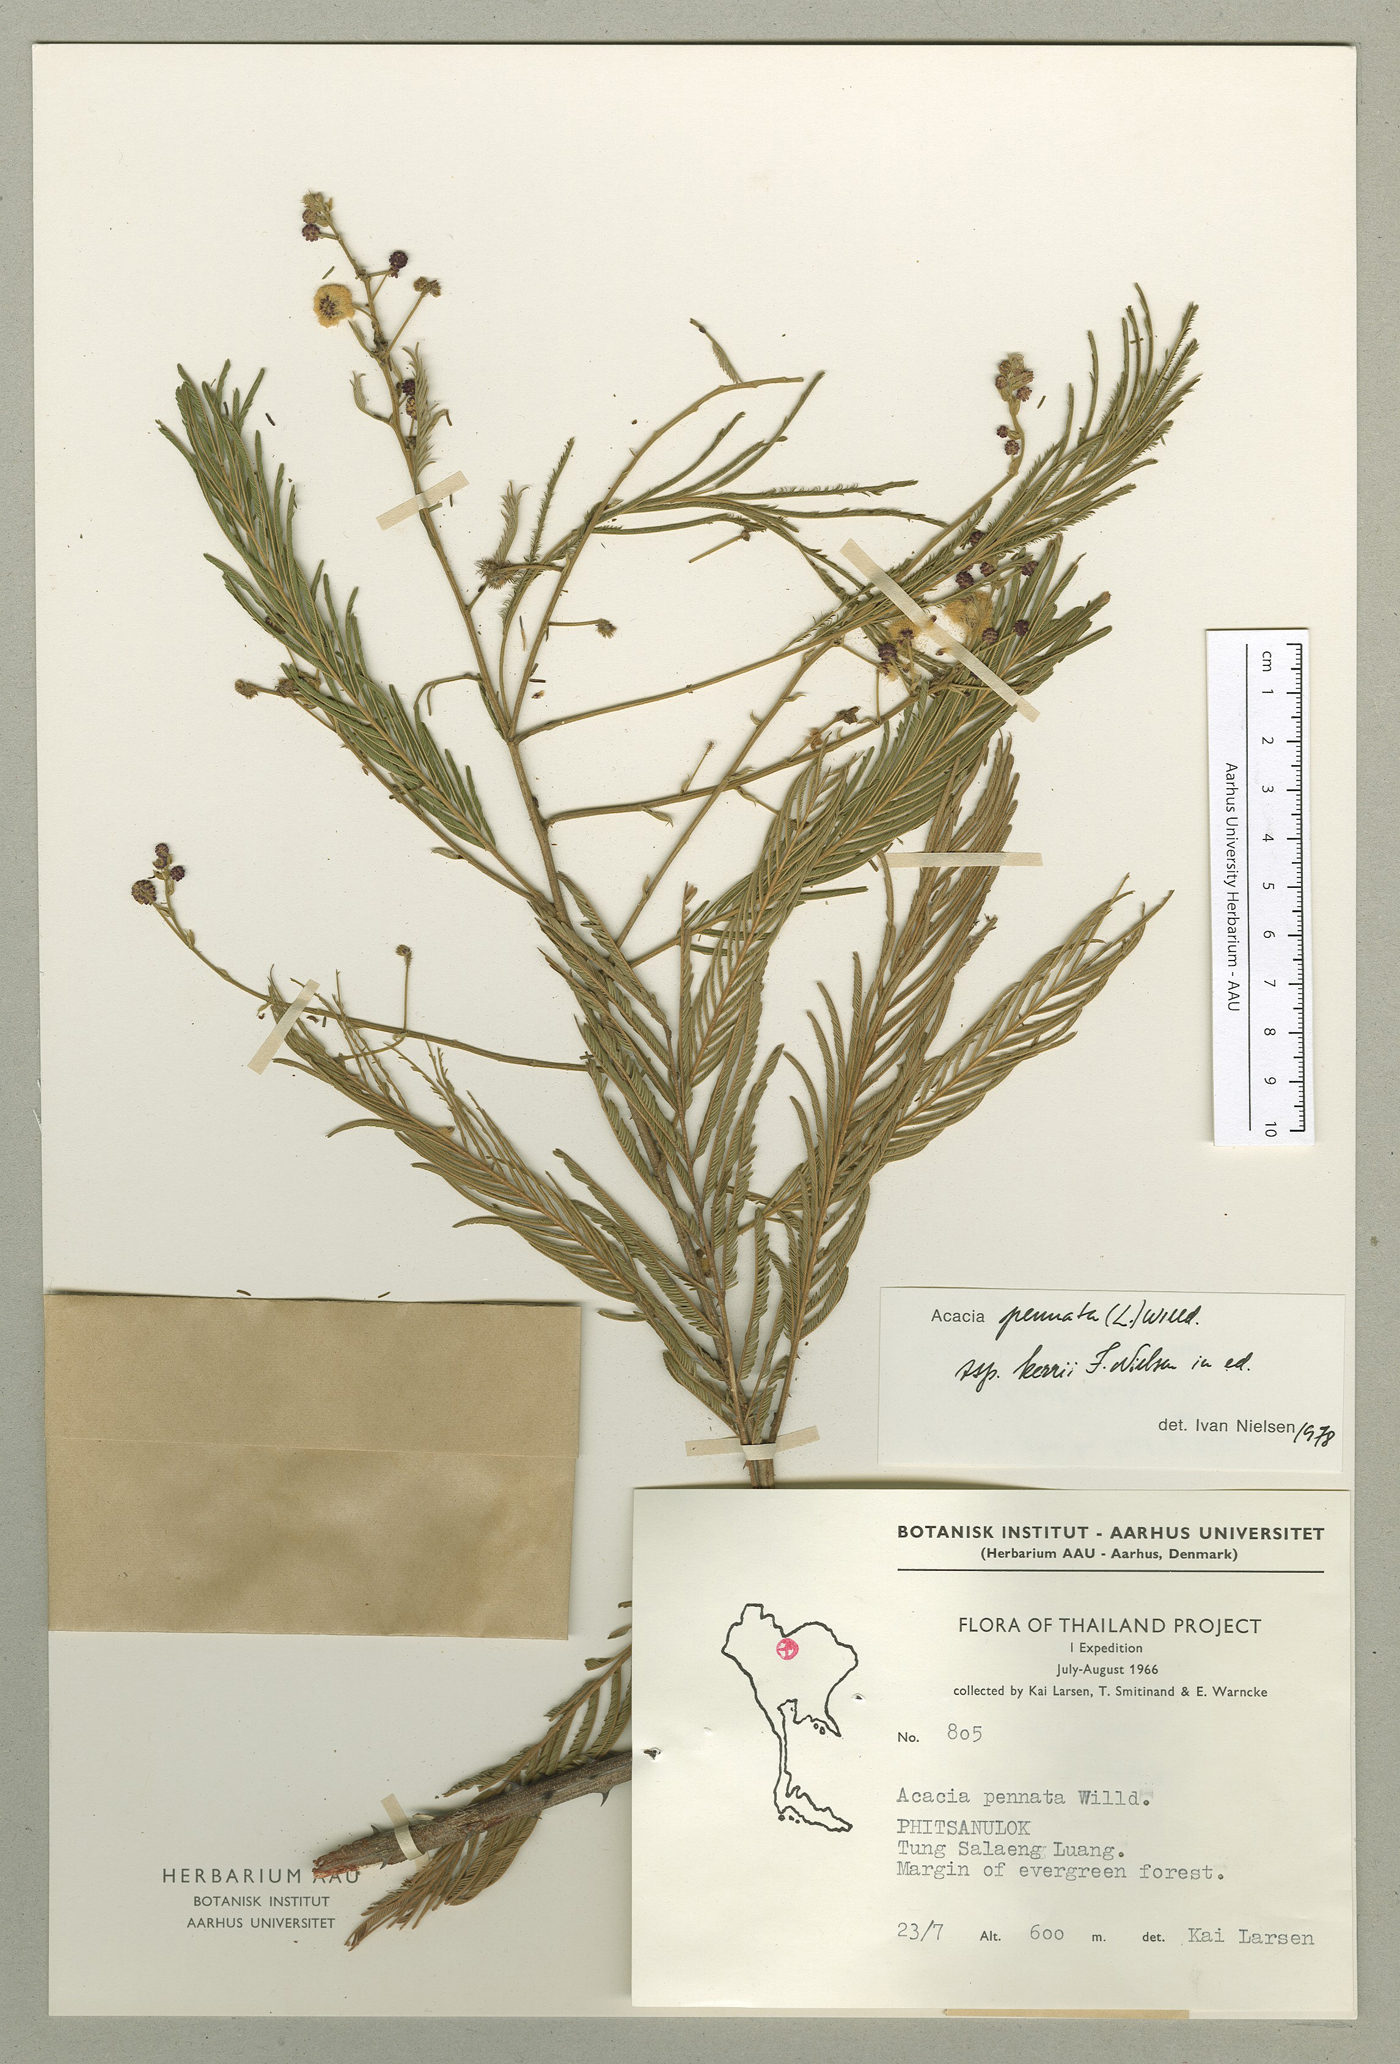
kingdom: Plantae
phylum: Tracheophyta
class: Magnoliopsida
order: Fabales
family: Fabaceae
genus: Senegalia
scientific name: Senegalia kerrii
